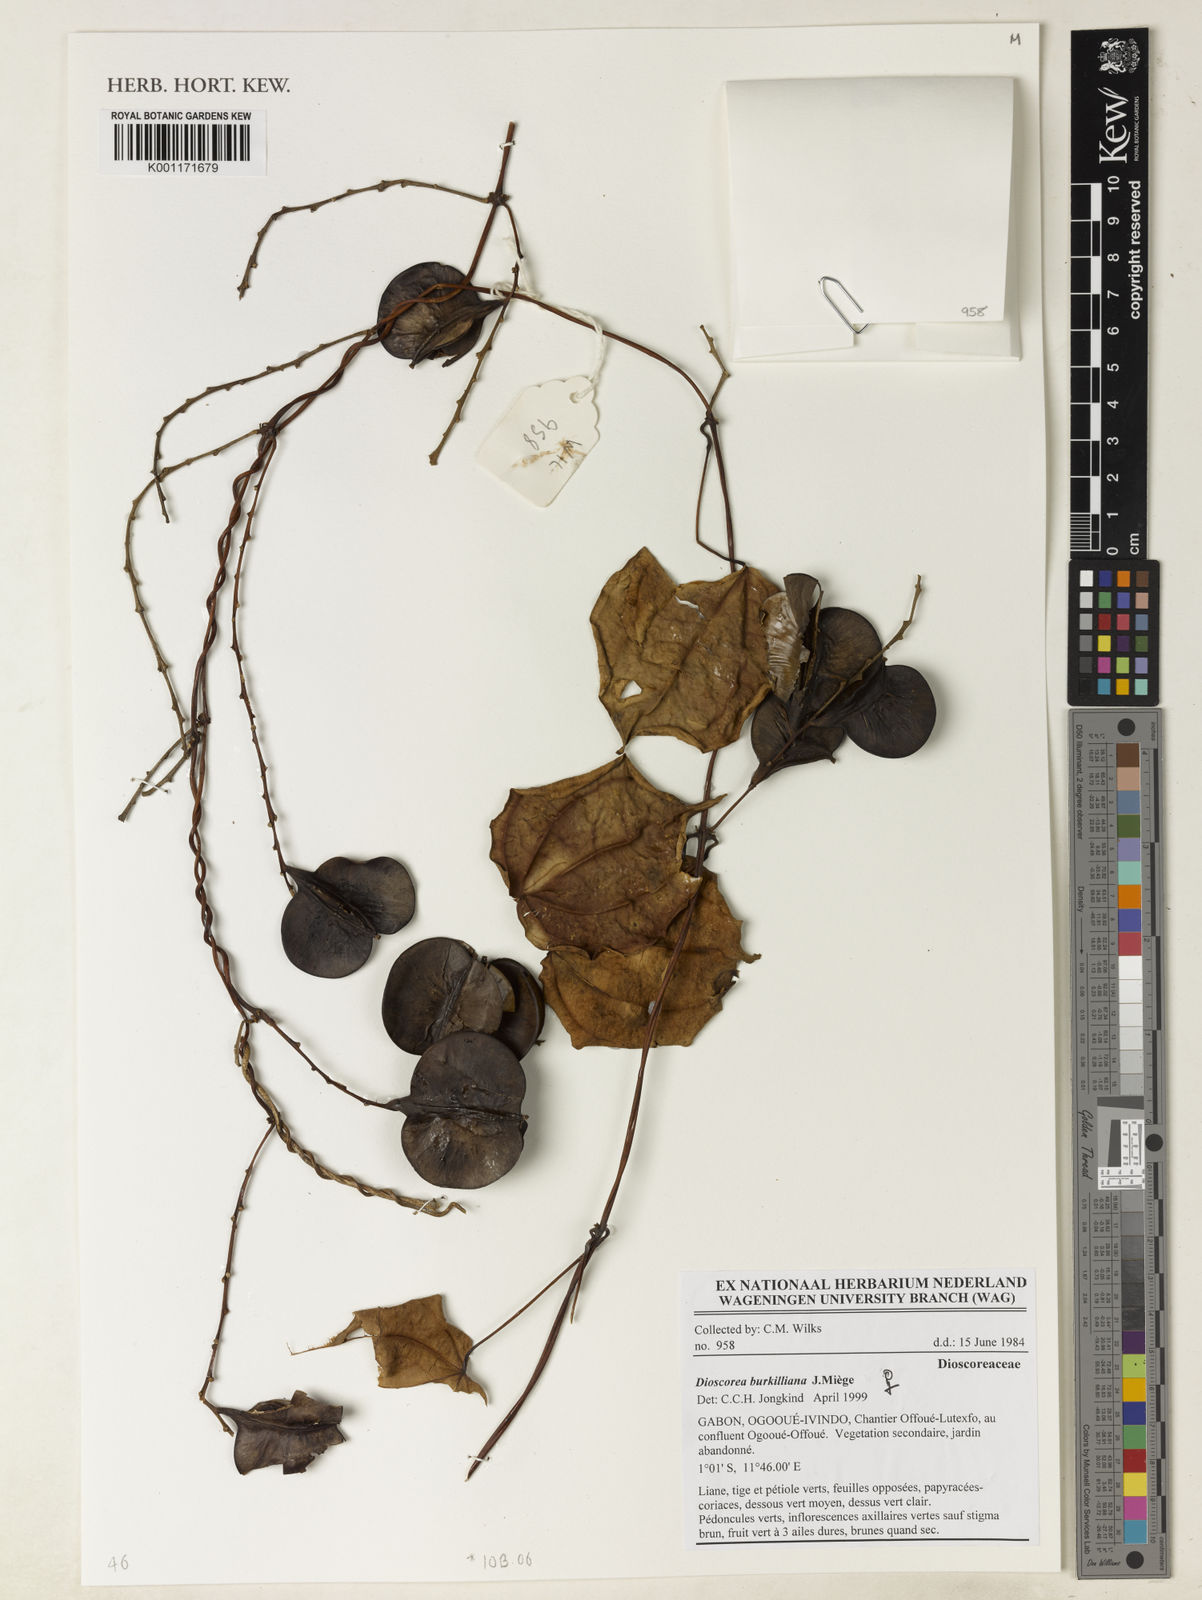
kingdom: Plantae
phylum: Tracheophyta
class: Liliopsida
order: Dioscoreales
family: Dioscoreaceae
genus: Dioscorea
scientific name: Dioscorea
